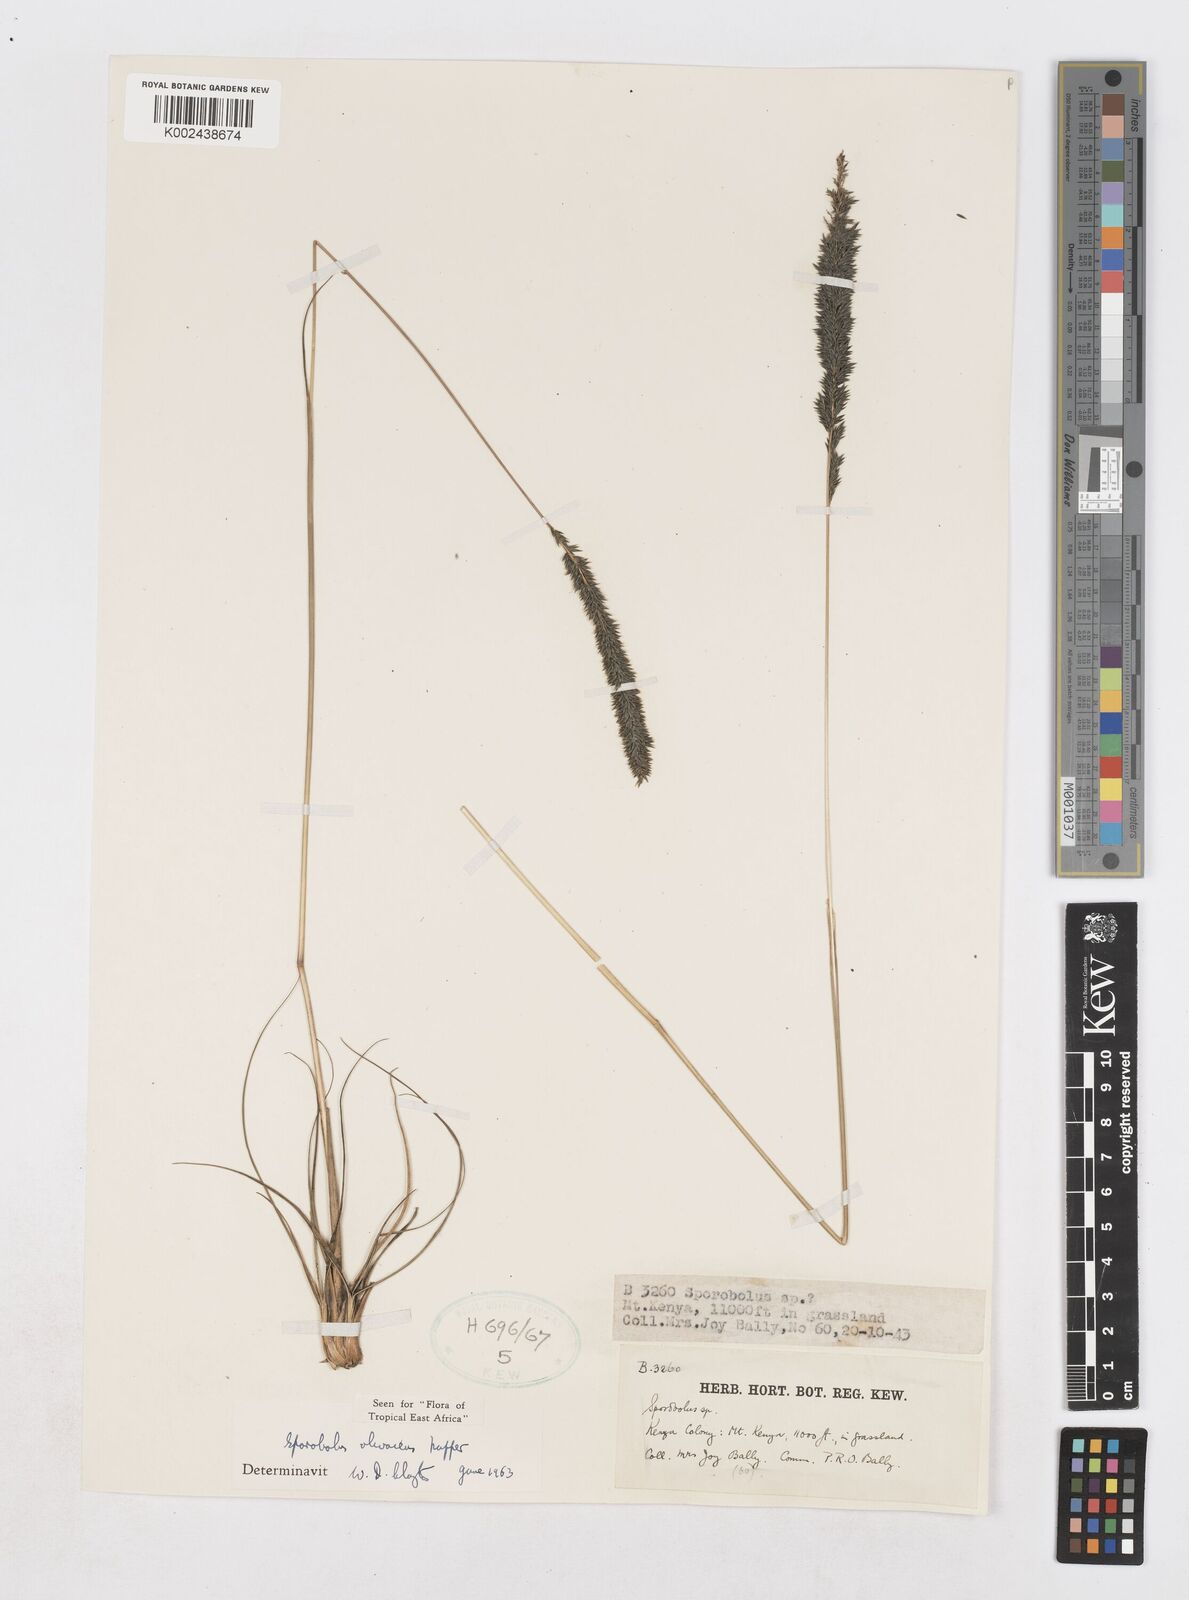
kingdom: Plantae
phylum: Tracheophyta
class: Liliopsida
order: Poales
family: Poaceae
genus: Sporobolus
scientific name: Sporobolus olivaceus
